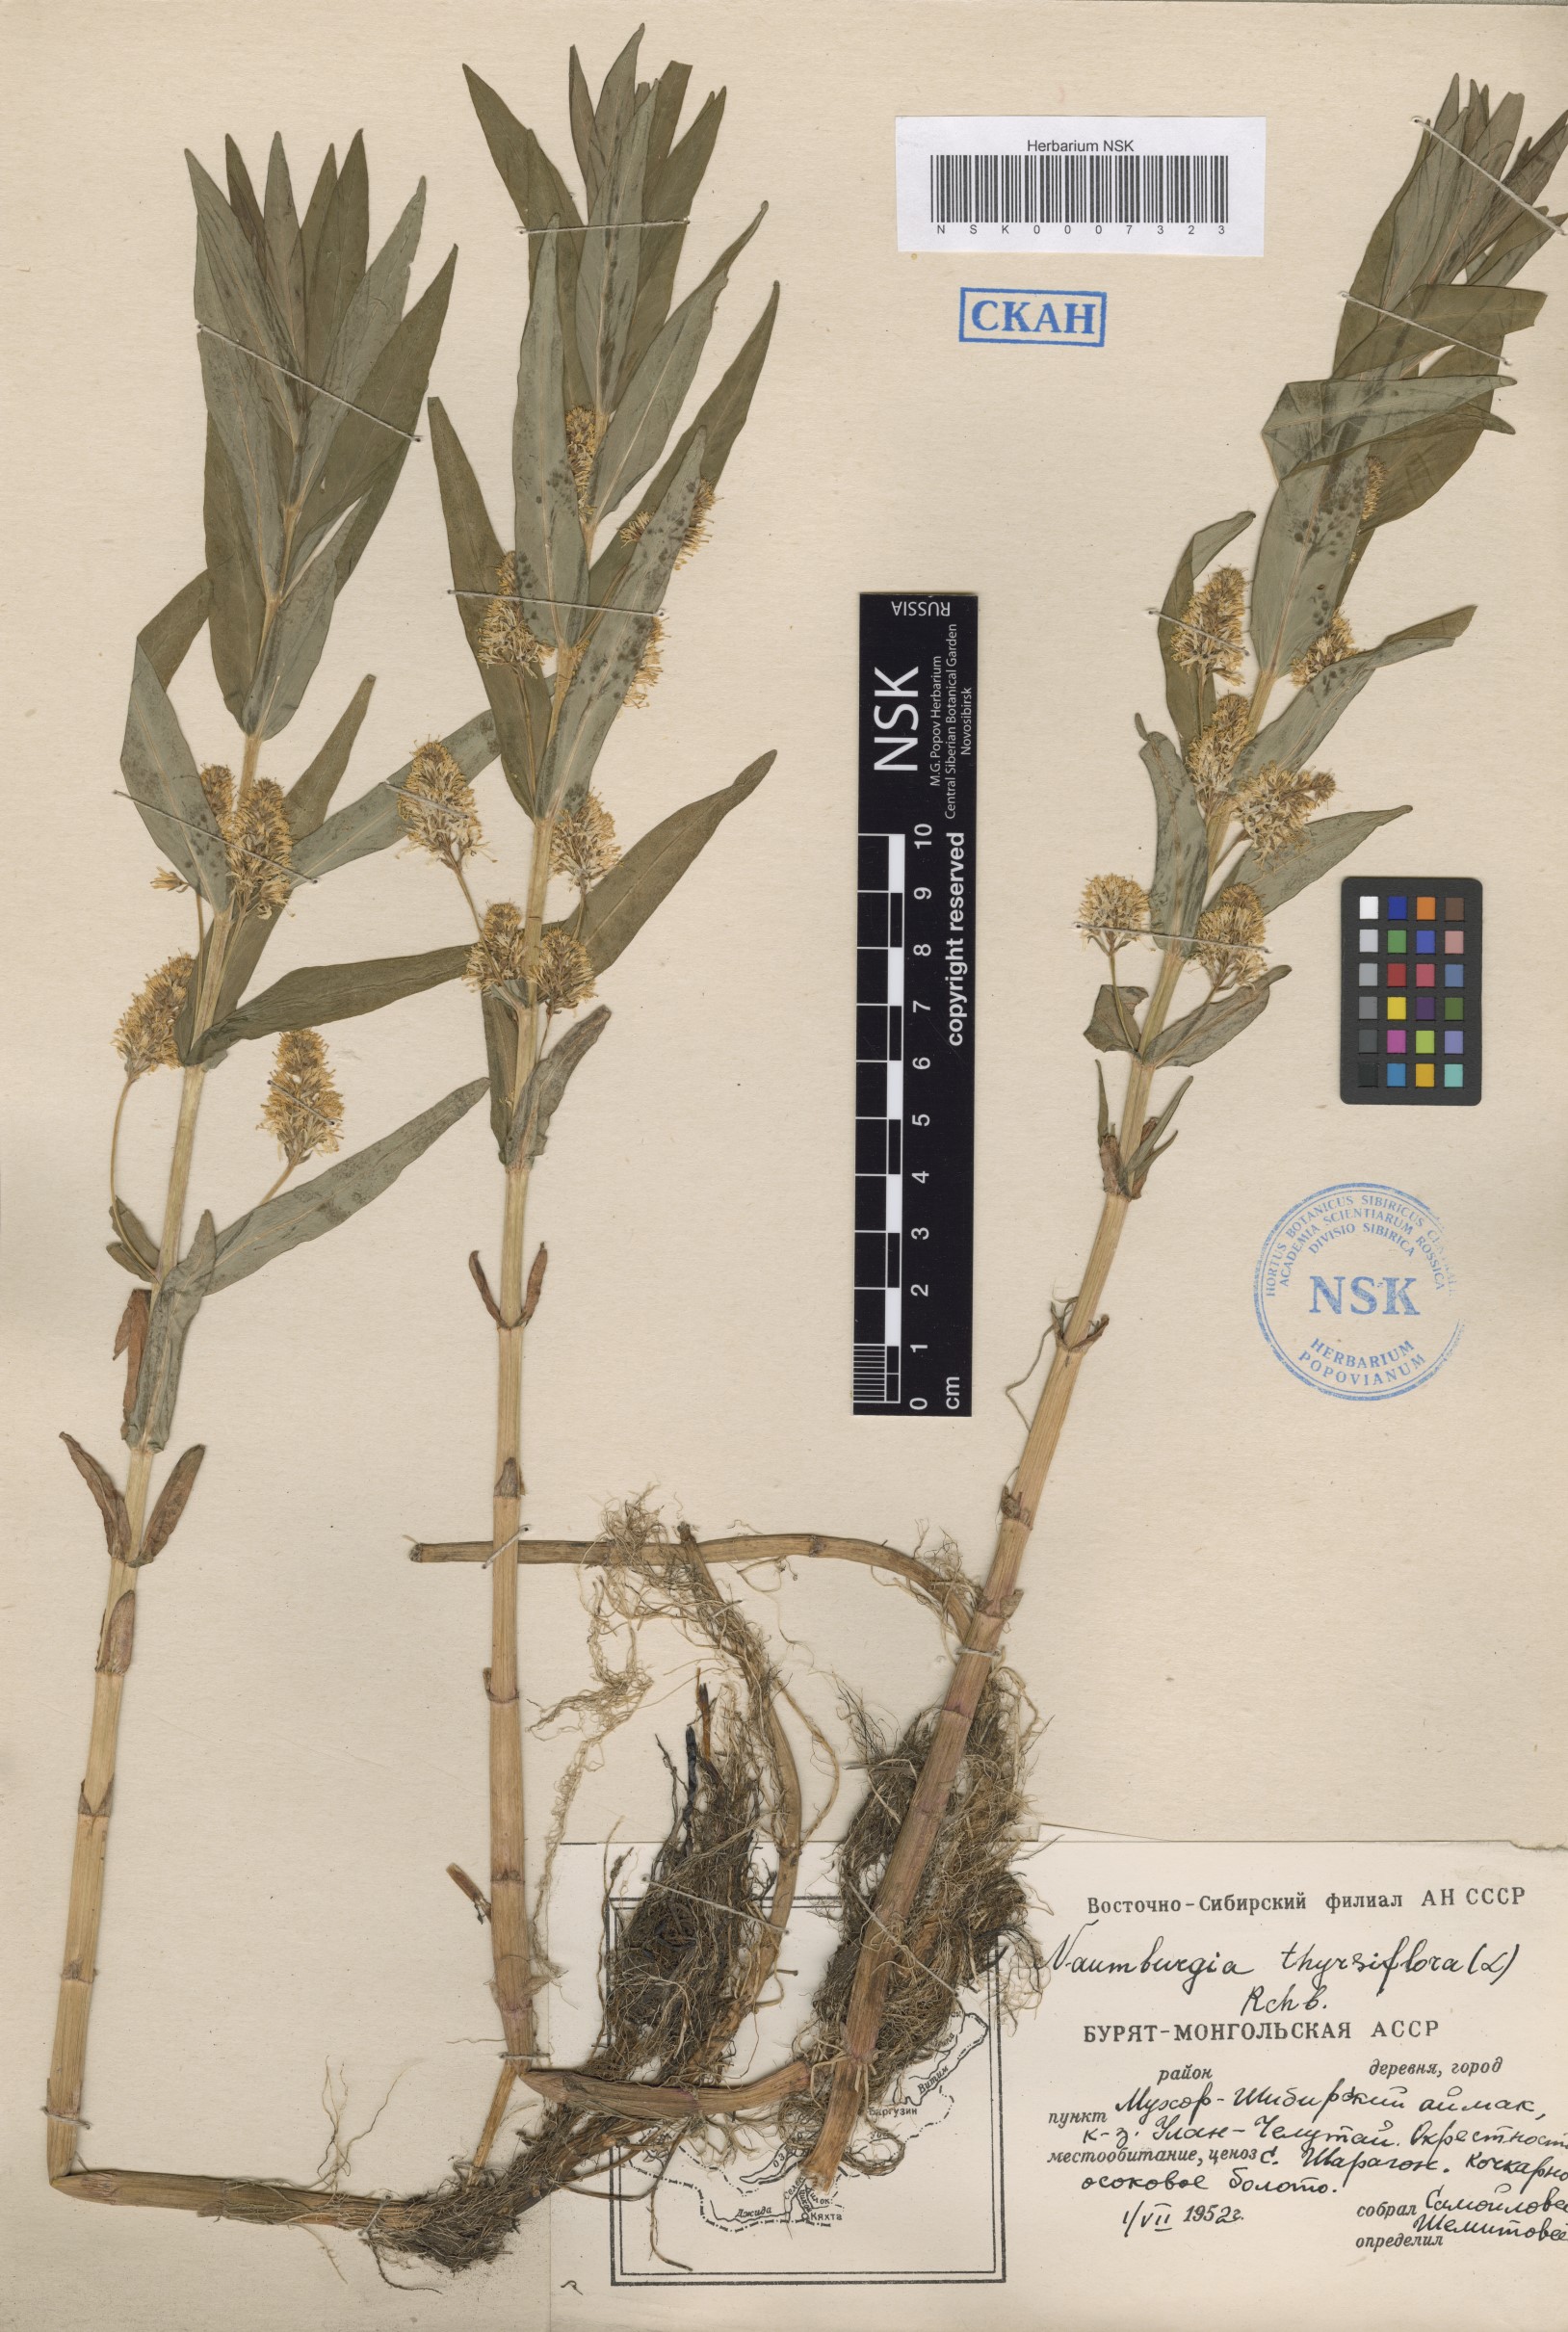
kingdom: Plantae
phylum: Tracheophyta
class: Magnoliopsida
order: Ericales
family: Primulaceae
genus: Lysimachia
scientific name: Lysimachia thyrsiflora
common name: Tufted loosestrife
